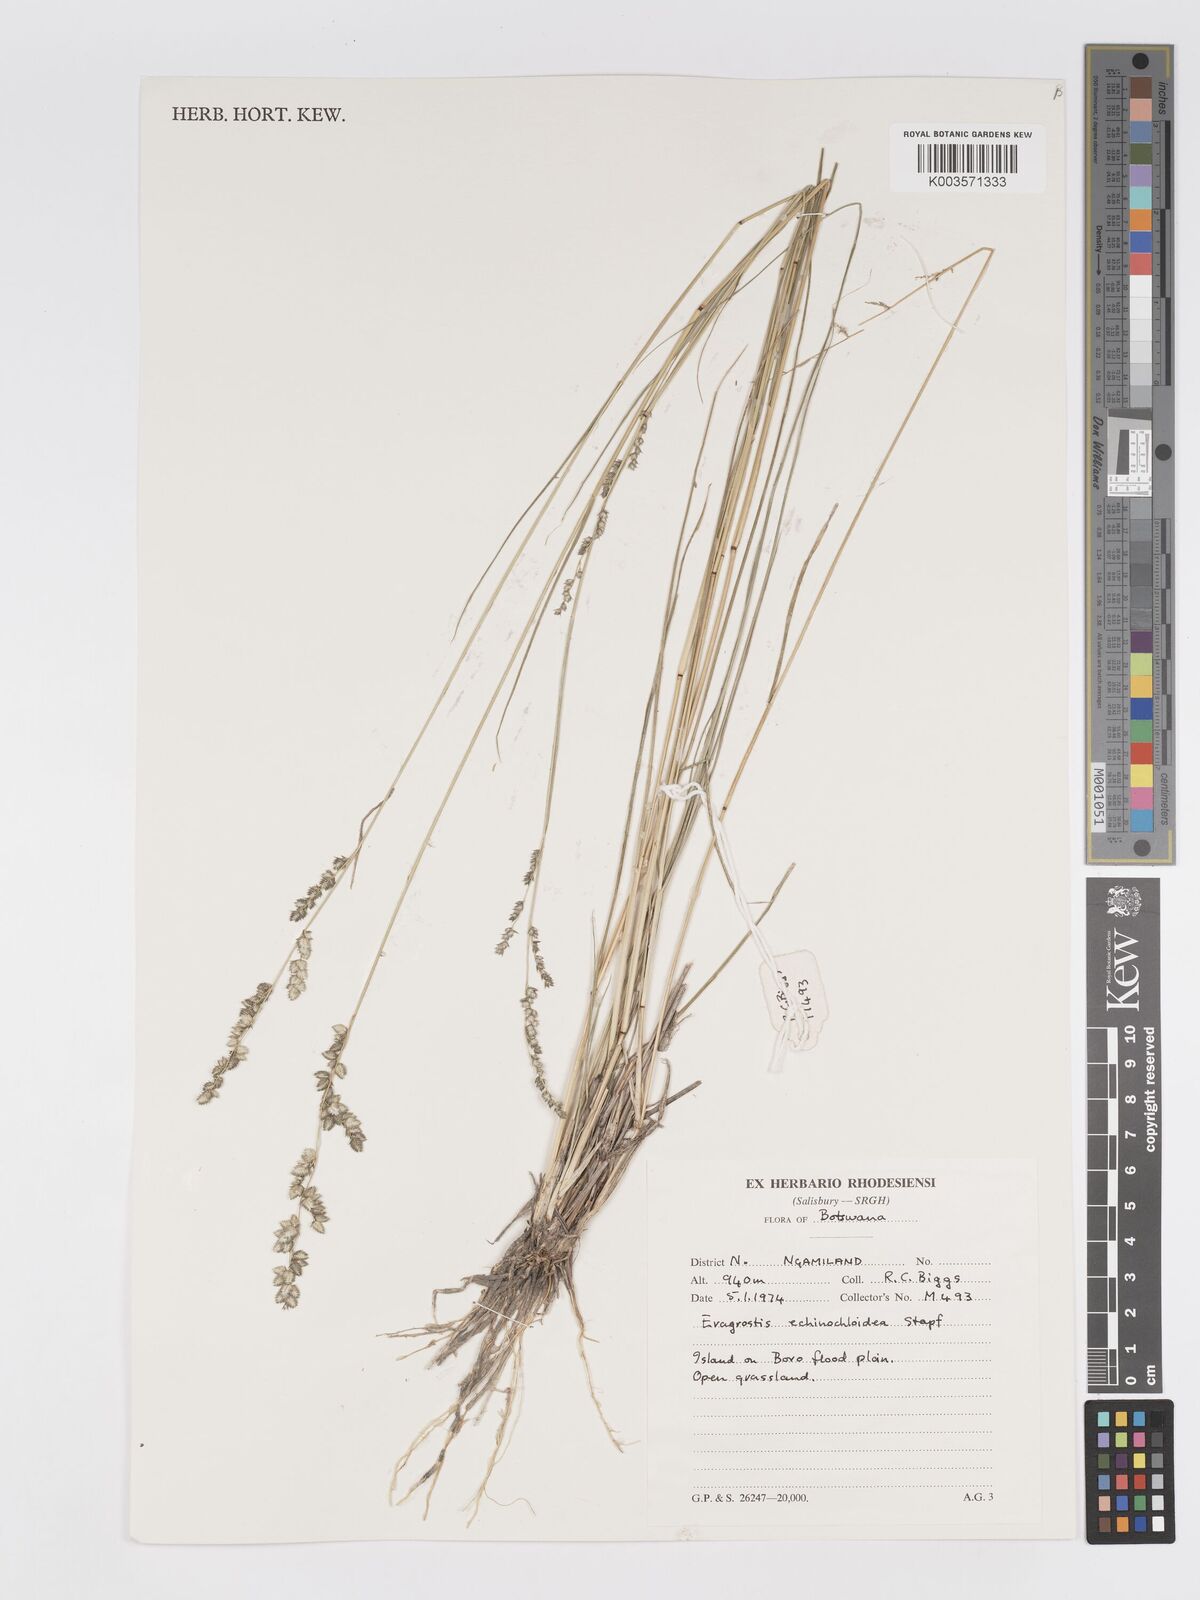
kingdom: Plantae
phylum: Tracheophyta
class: Liliopsida
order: Poales
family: Poaceae
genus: Eragrostis
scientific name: Eragrostis echinochloidea
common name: African lovegrass
